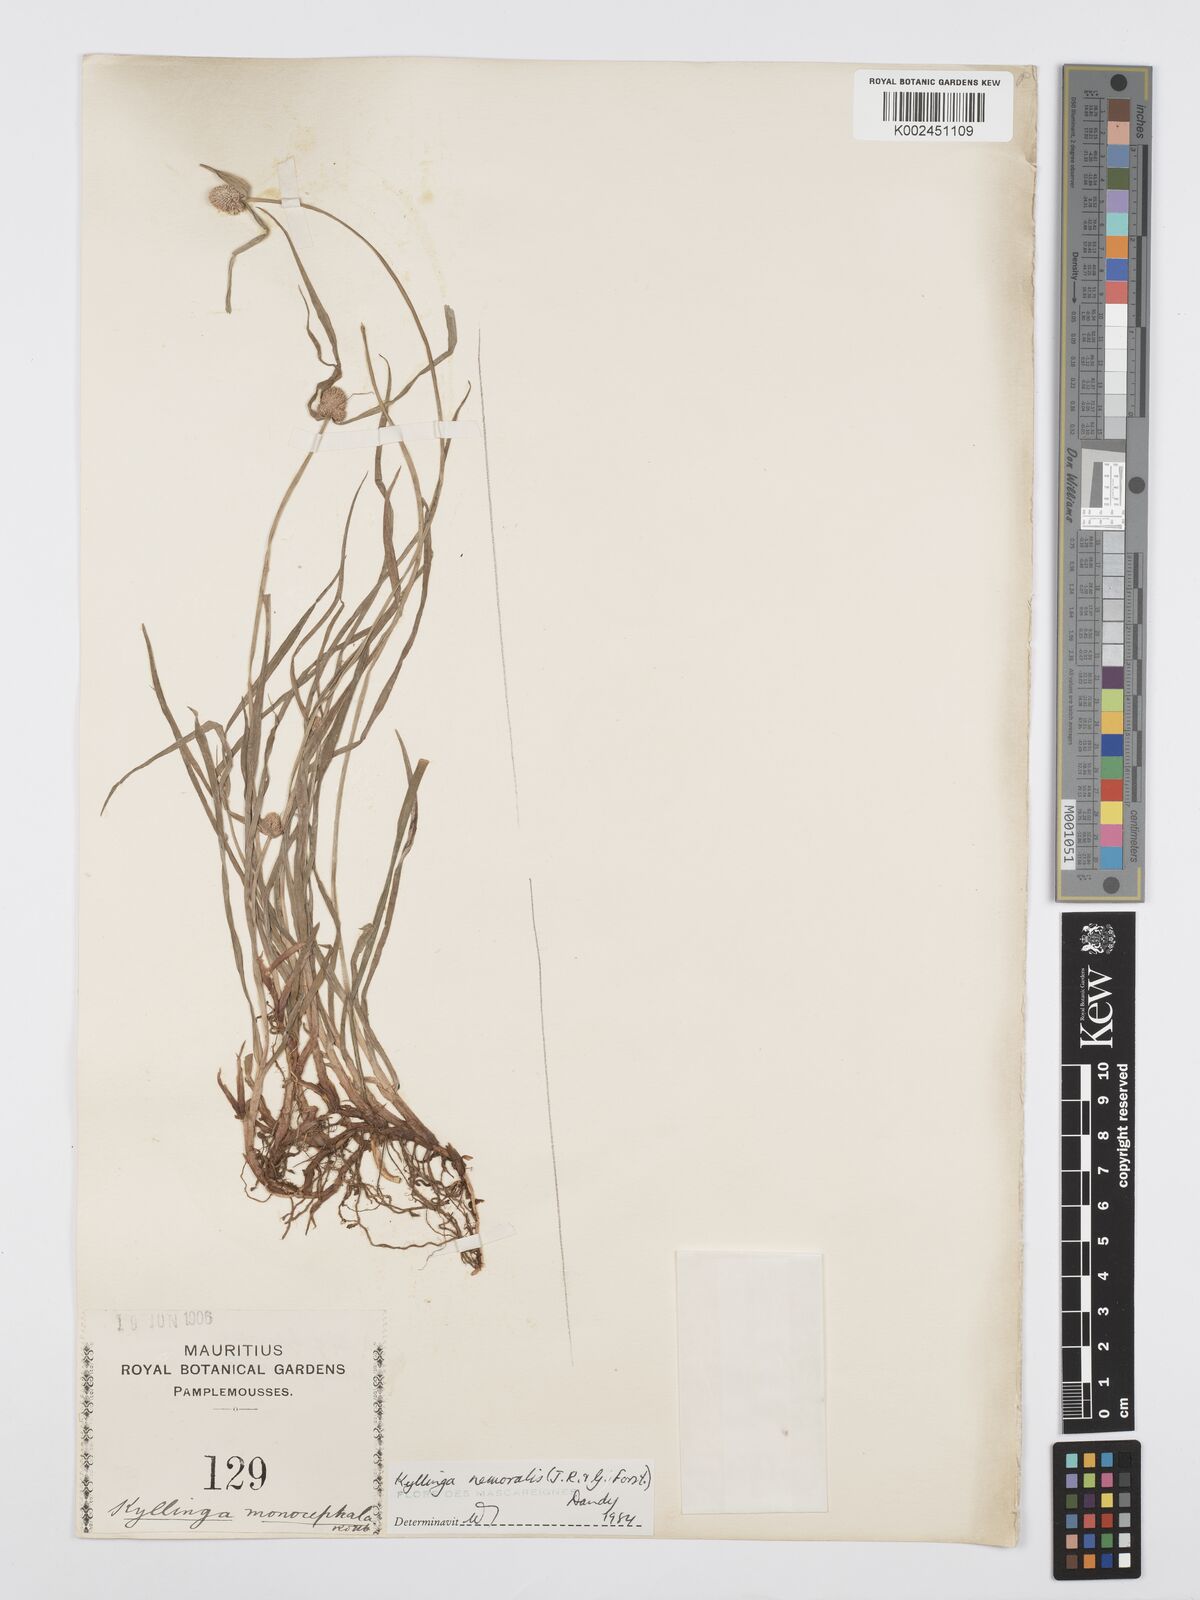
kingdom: Plantae
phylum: Tracheophyta
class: Liliopsida
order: Poales
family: Cyperaceae
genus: Cyperus
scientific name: Cyperus nemoralis
